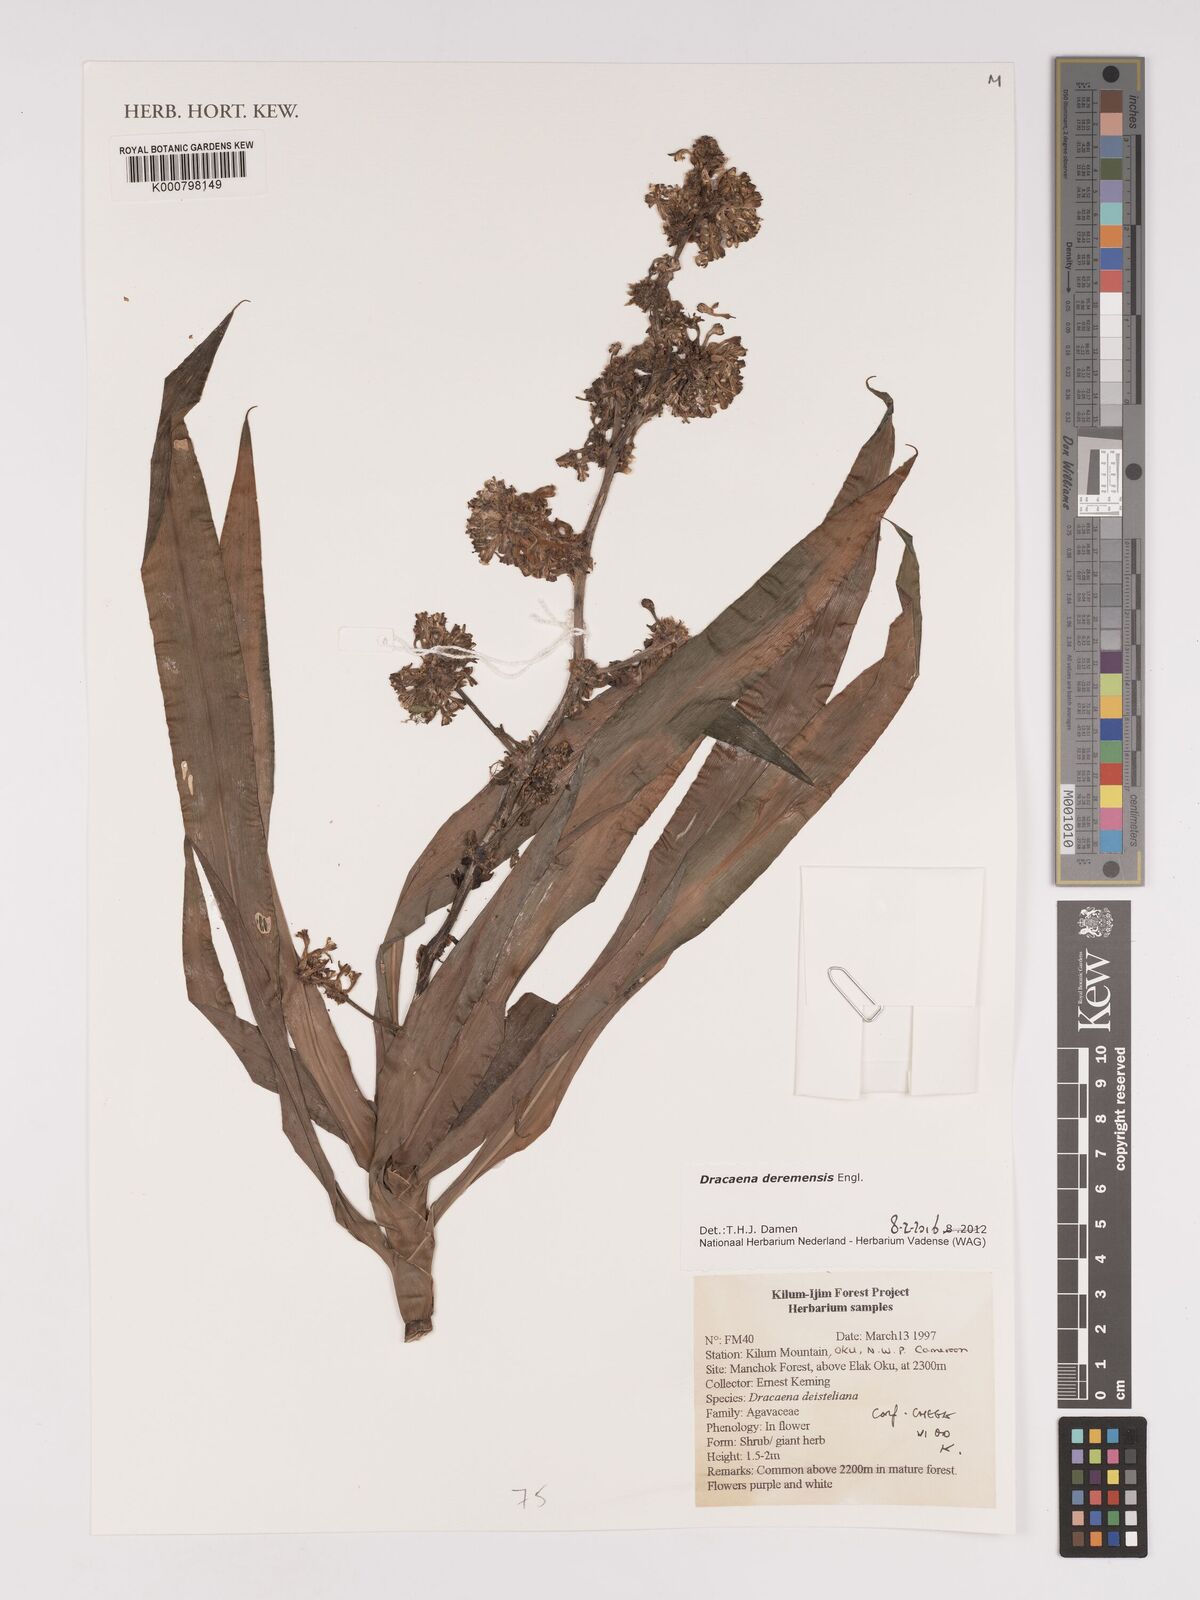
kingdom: Plantae
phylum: Tracheophyta
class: Liliopsida
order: Asparagales
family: Asparagaceae
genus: Dracaena
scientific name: Dracaena fragrans
